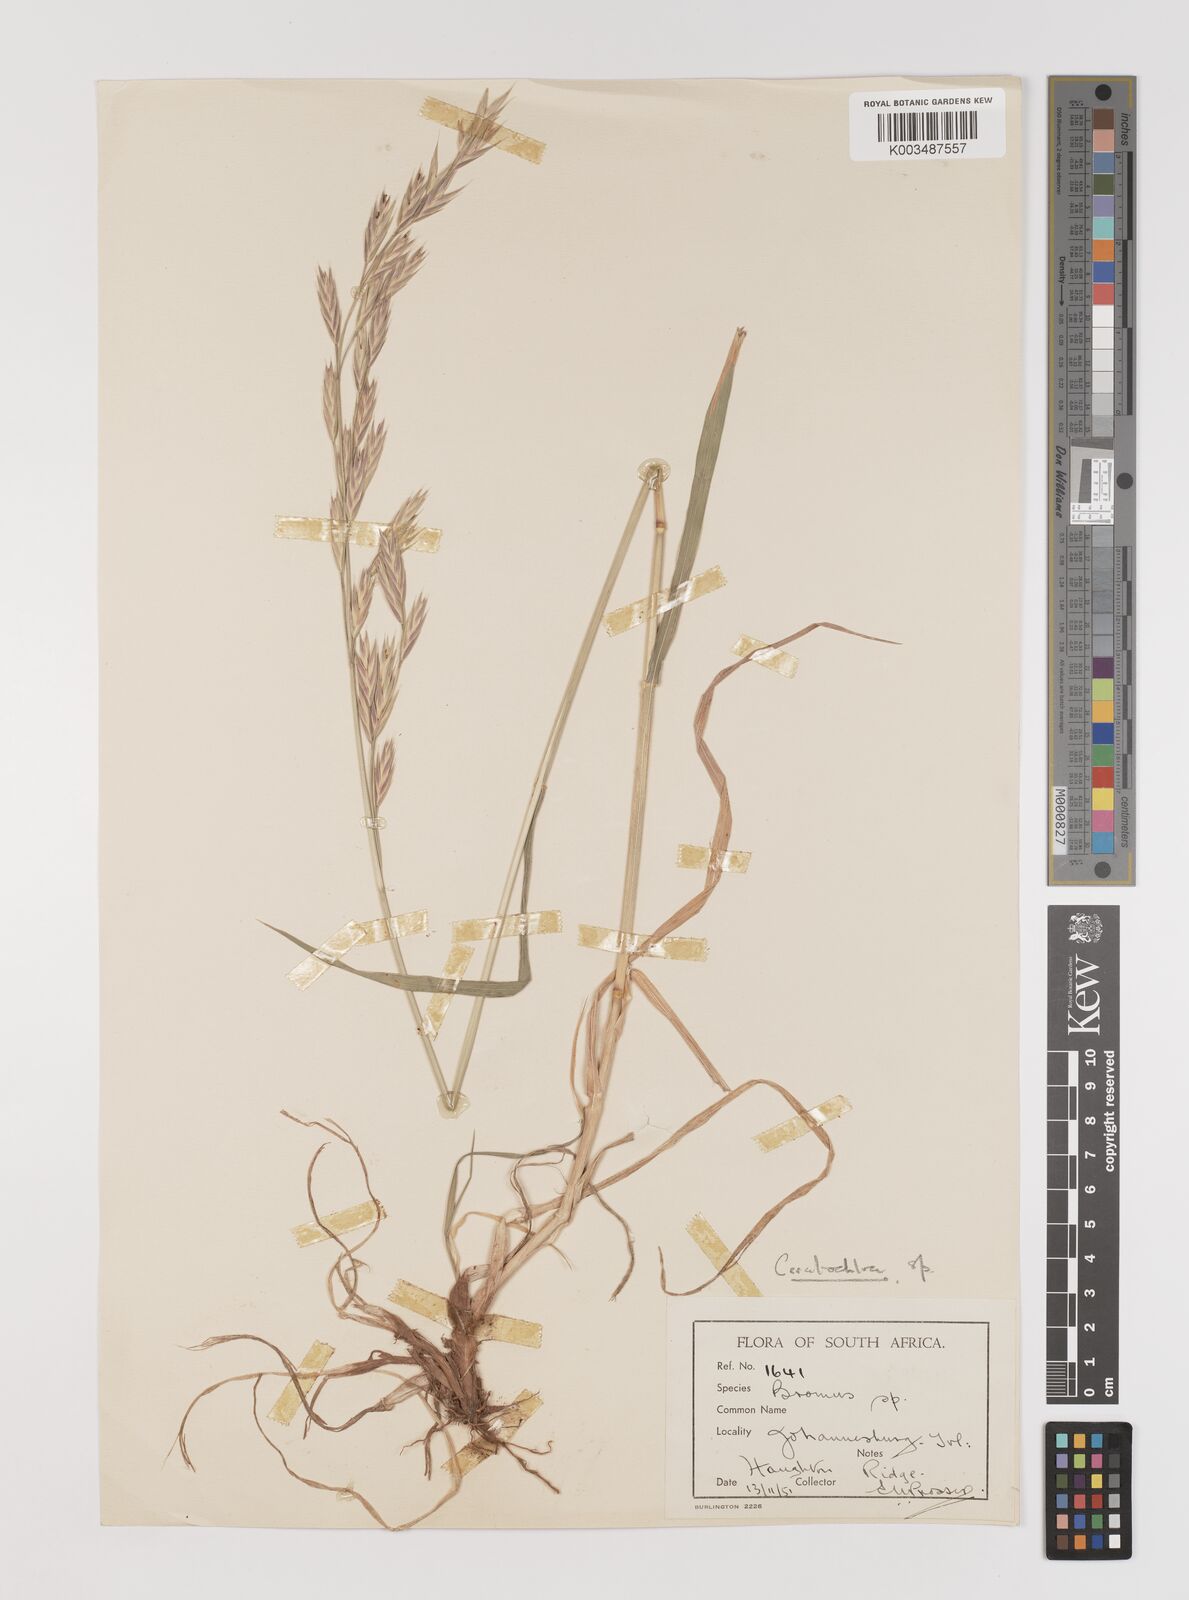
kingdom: Plantae
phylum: Tracheophyta
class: Liliopsida
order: Poales
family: Poaceae
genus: Bromus
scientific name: Bromus catharticus
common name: Rescuegrass
